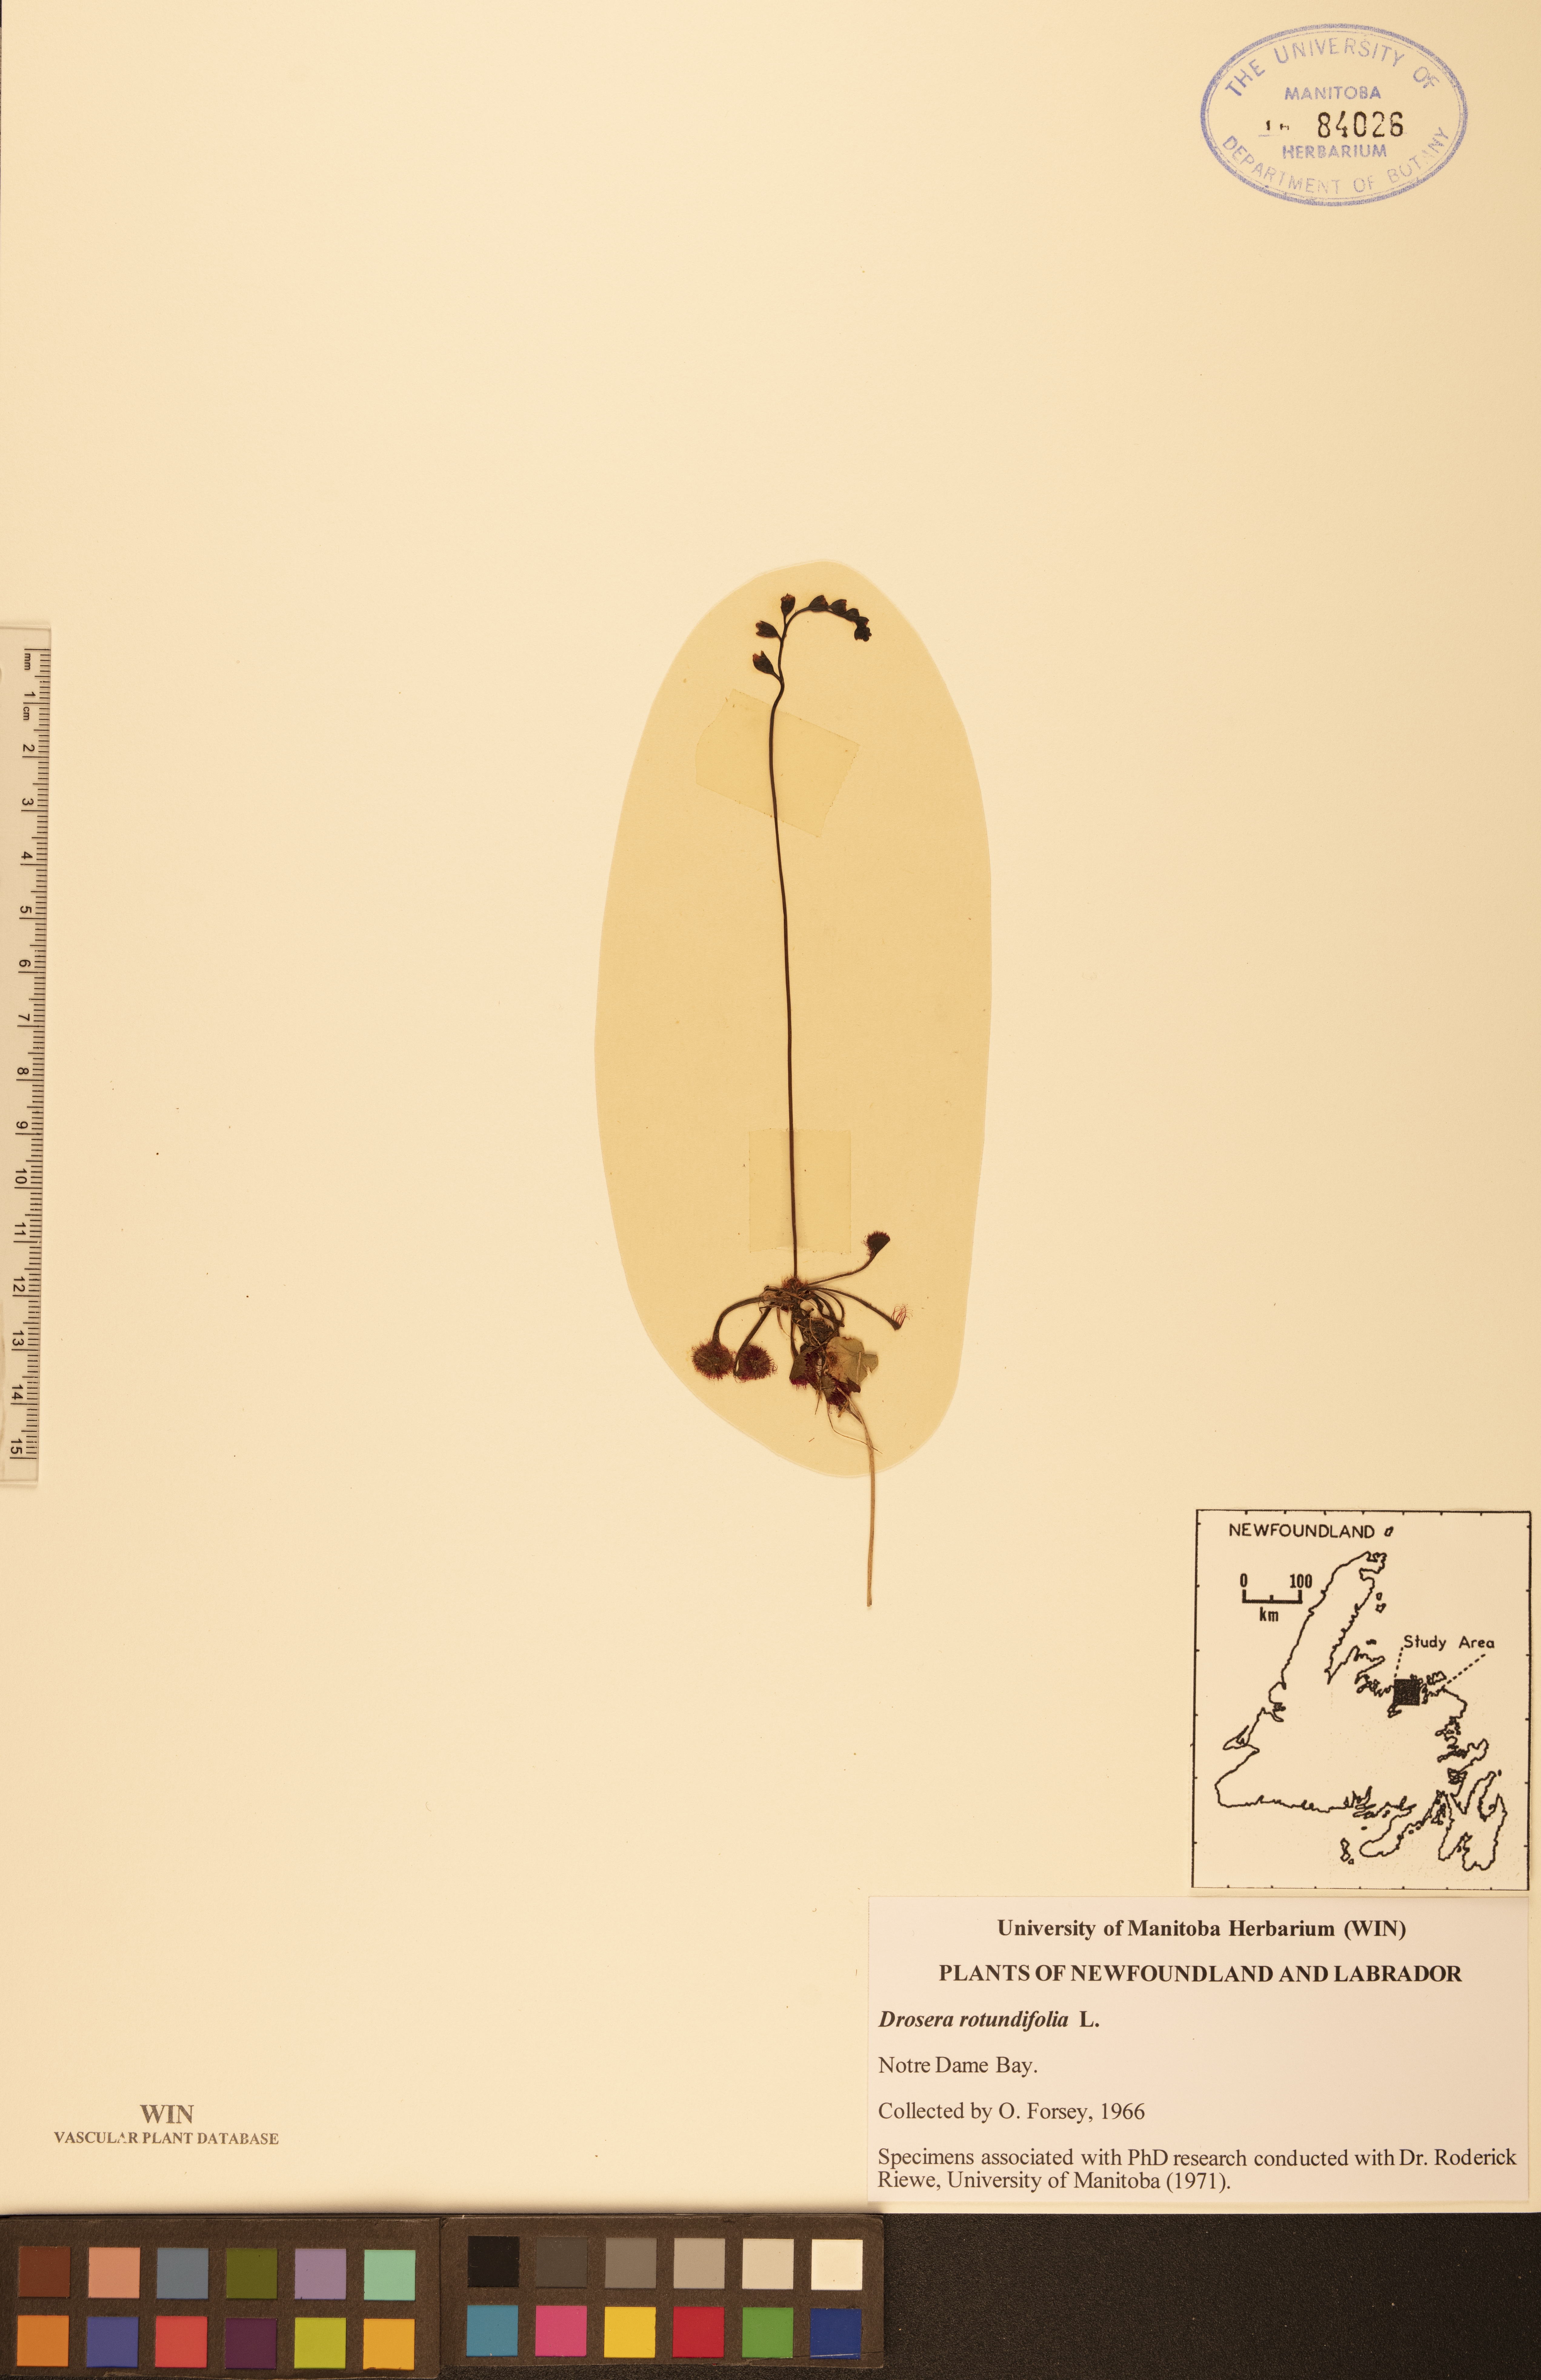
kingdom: Plantae
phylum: Tracheophyta
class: Magnoliopsida
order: Caryophyllales
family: Droseraceae
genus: Drosera
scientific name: Drosera rotundifolia
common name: Round-leaved sundew
